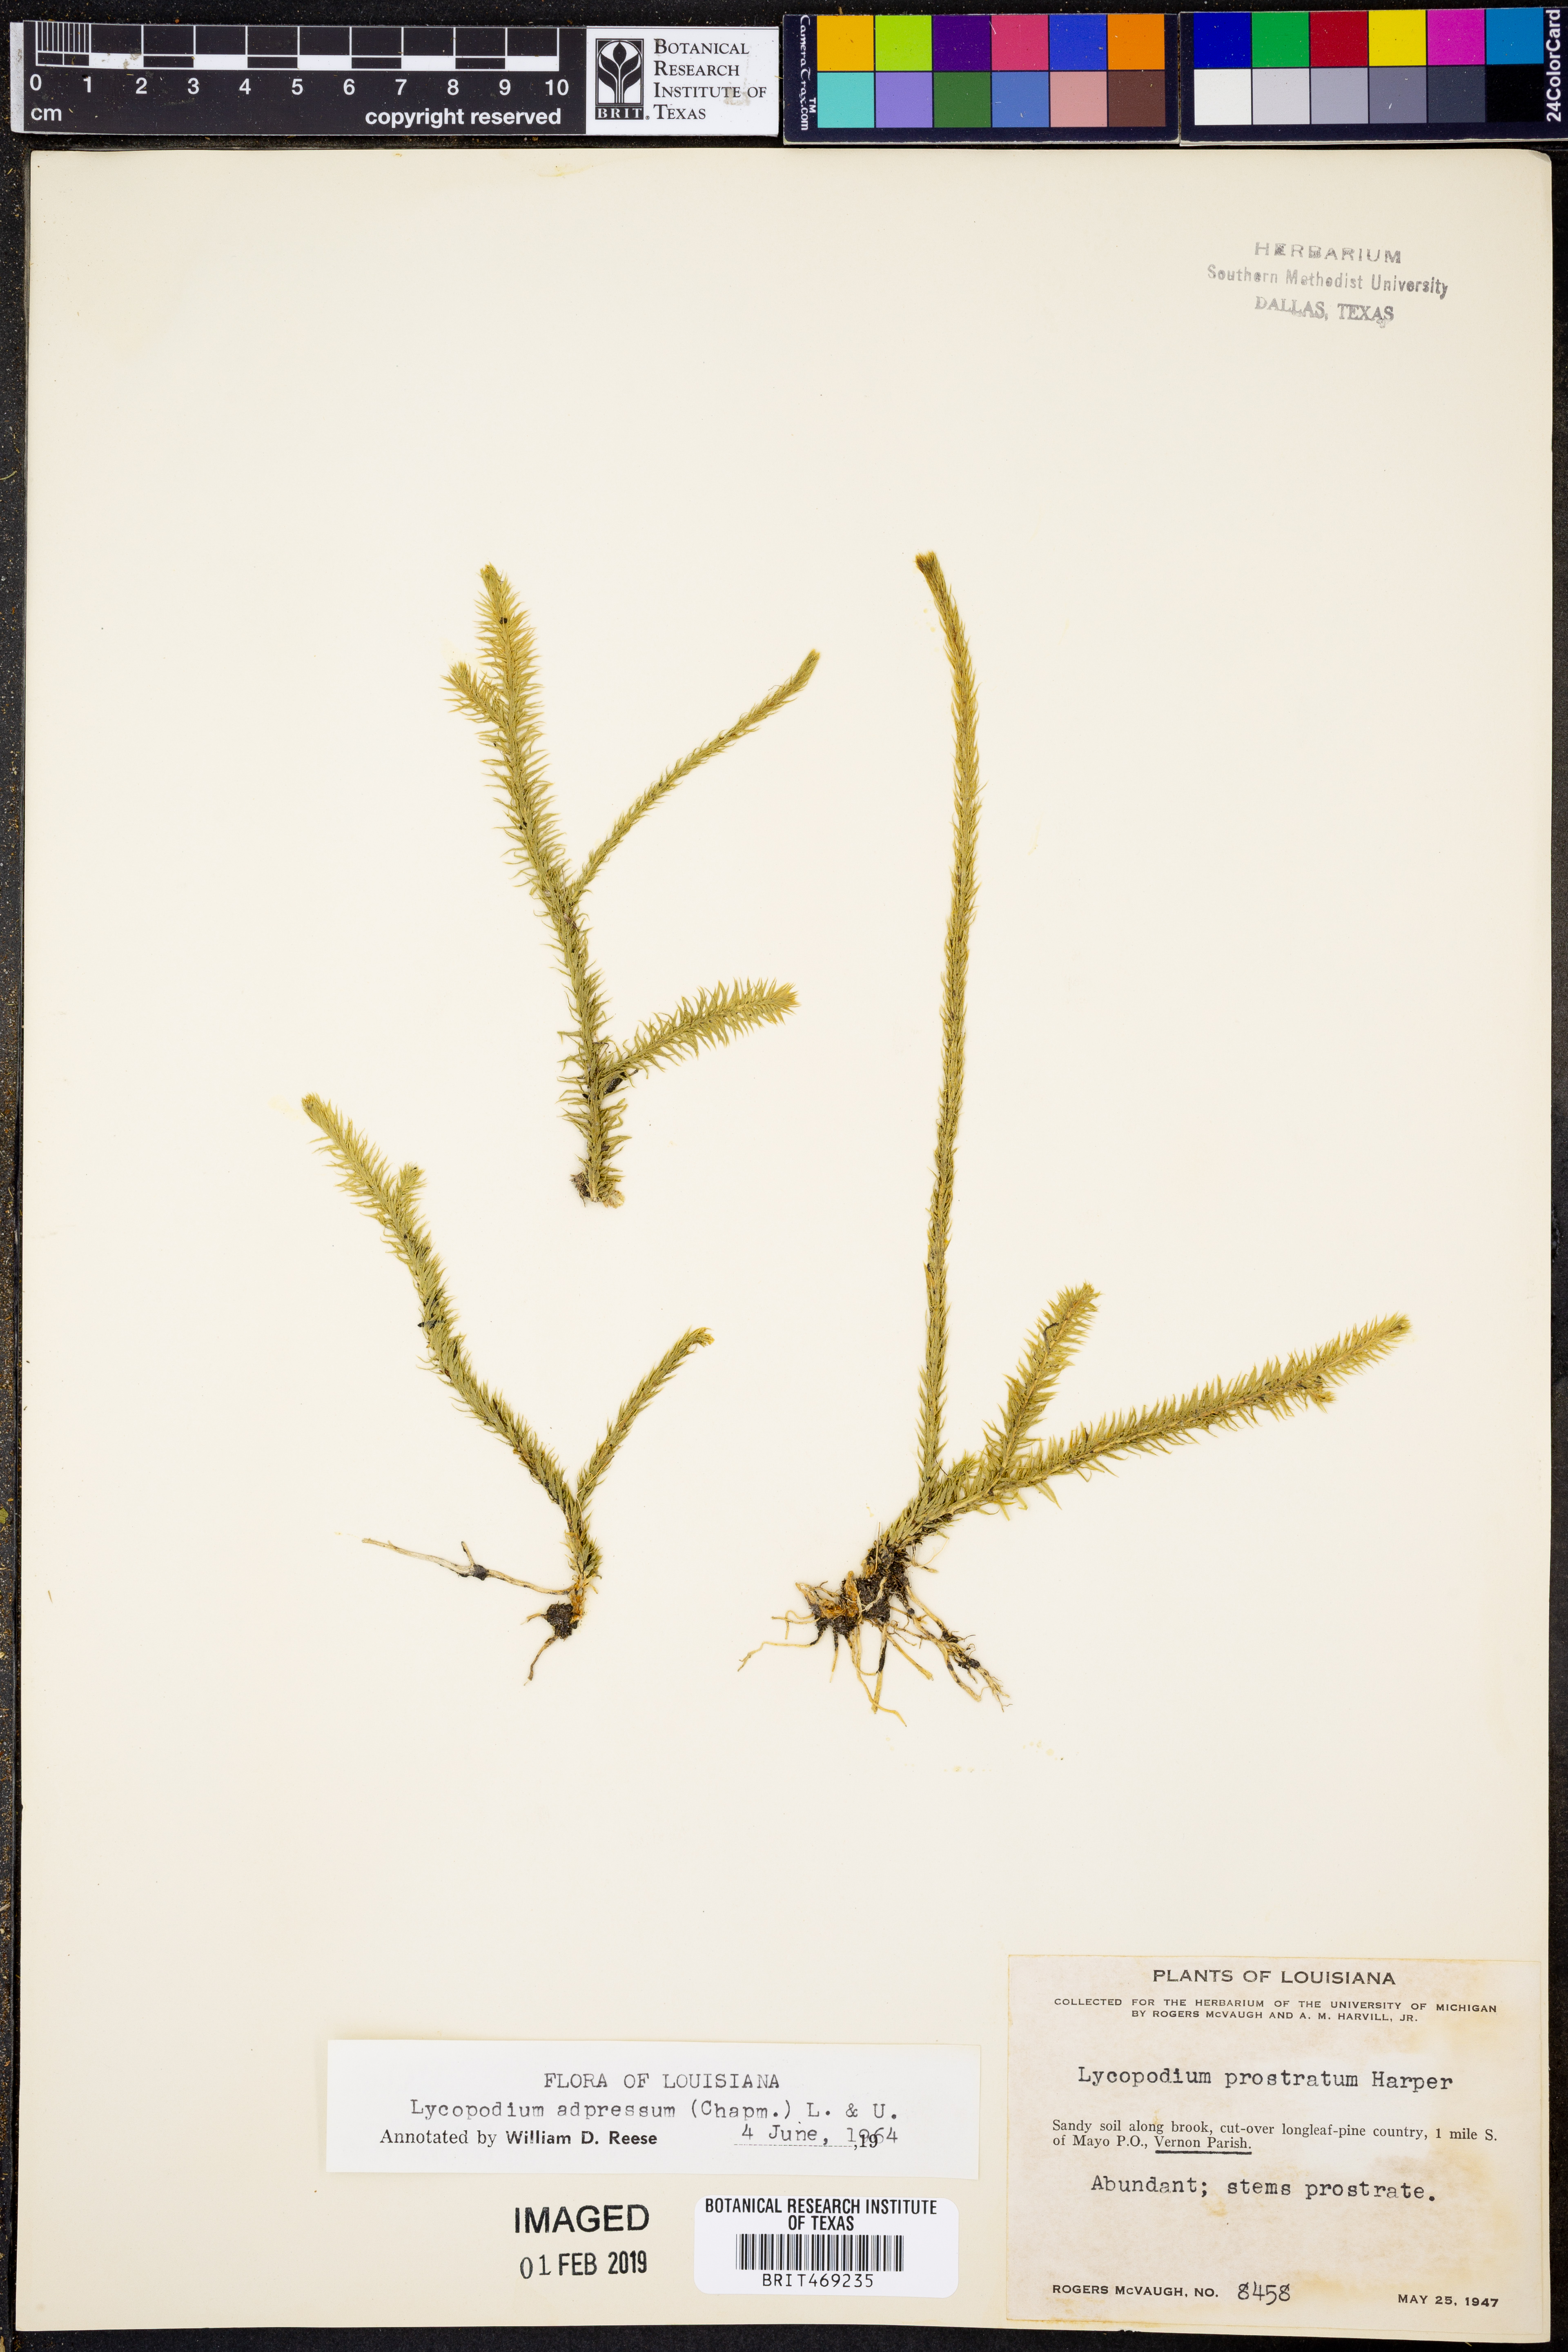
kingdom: Plantae
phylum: Tracheophyta
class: Lycopodiopsida
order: Lycopodiales
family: Lycopodiaceae
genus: Lycopodiella
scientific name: Lycopodiella appressa
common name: Appressed bog clubmoss
